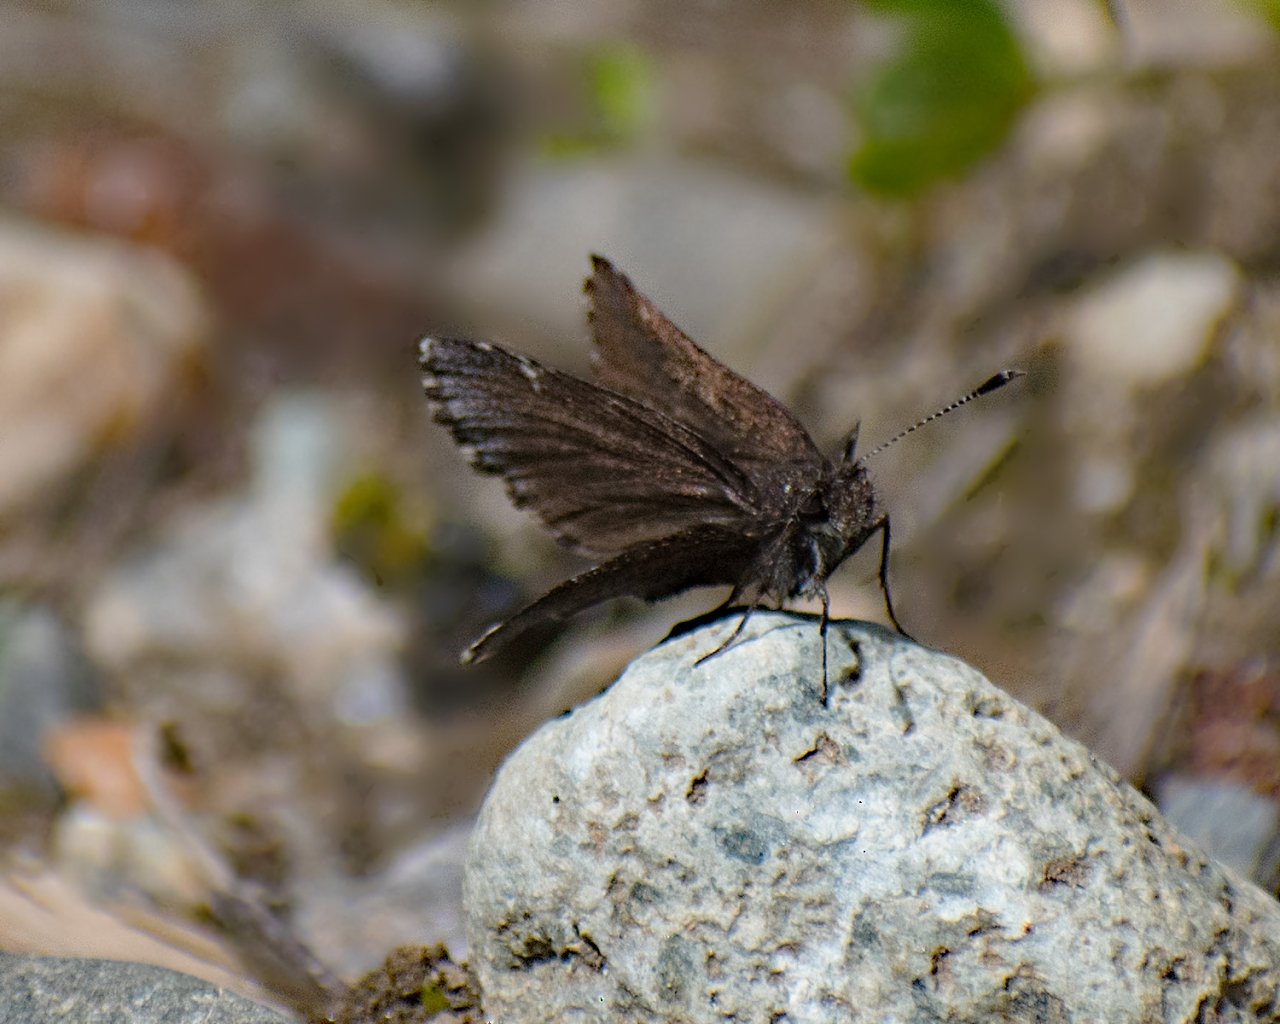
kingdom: Animalia
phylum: Arthropoda
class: Insecta
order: Lepidoptera
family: Hesperiidae
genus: Mastor
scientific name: Mastor vialis
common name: Common Roadside-Skipper
